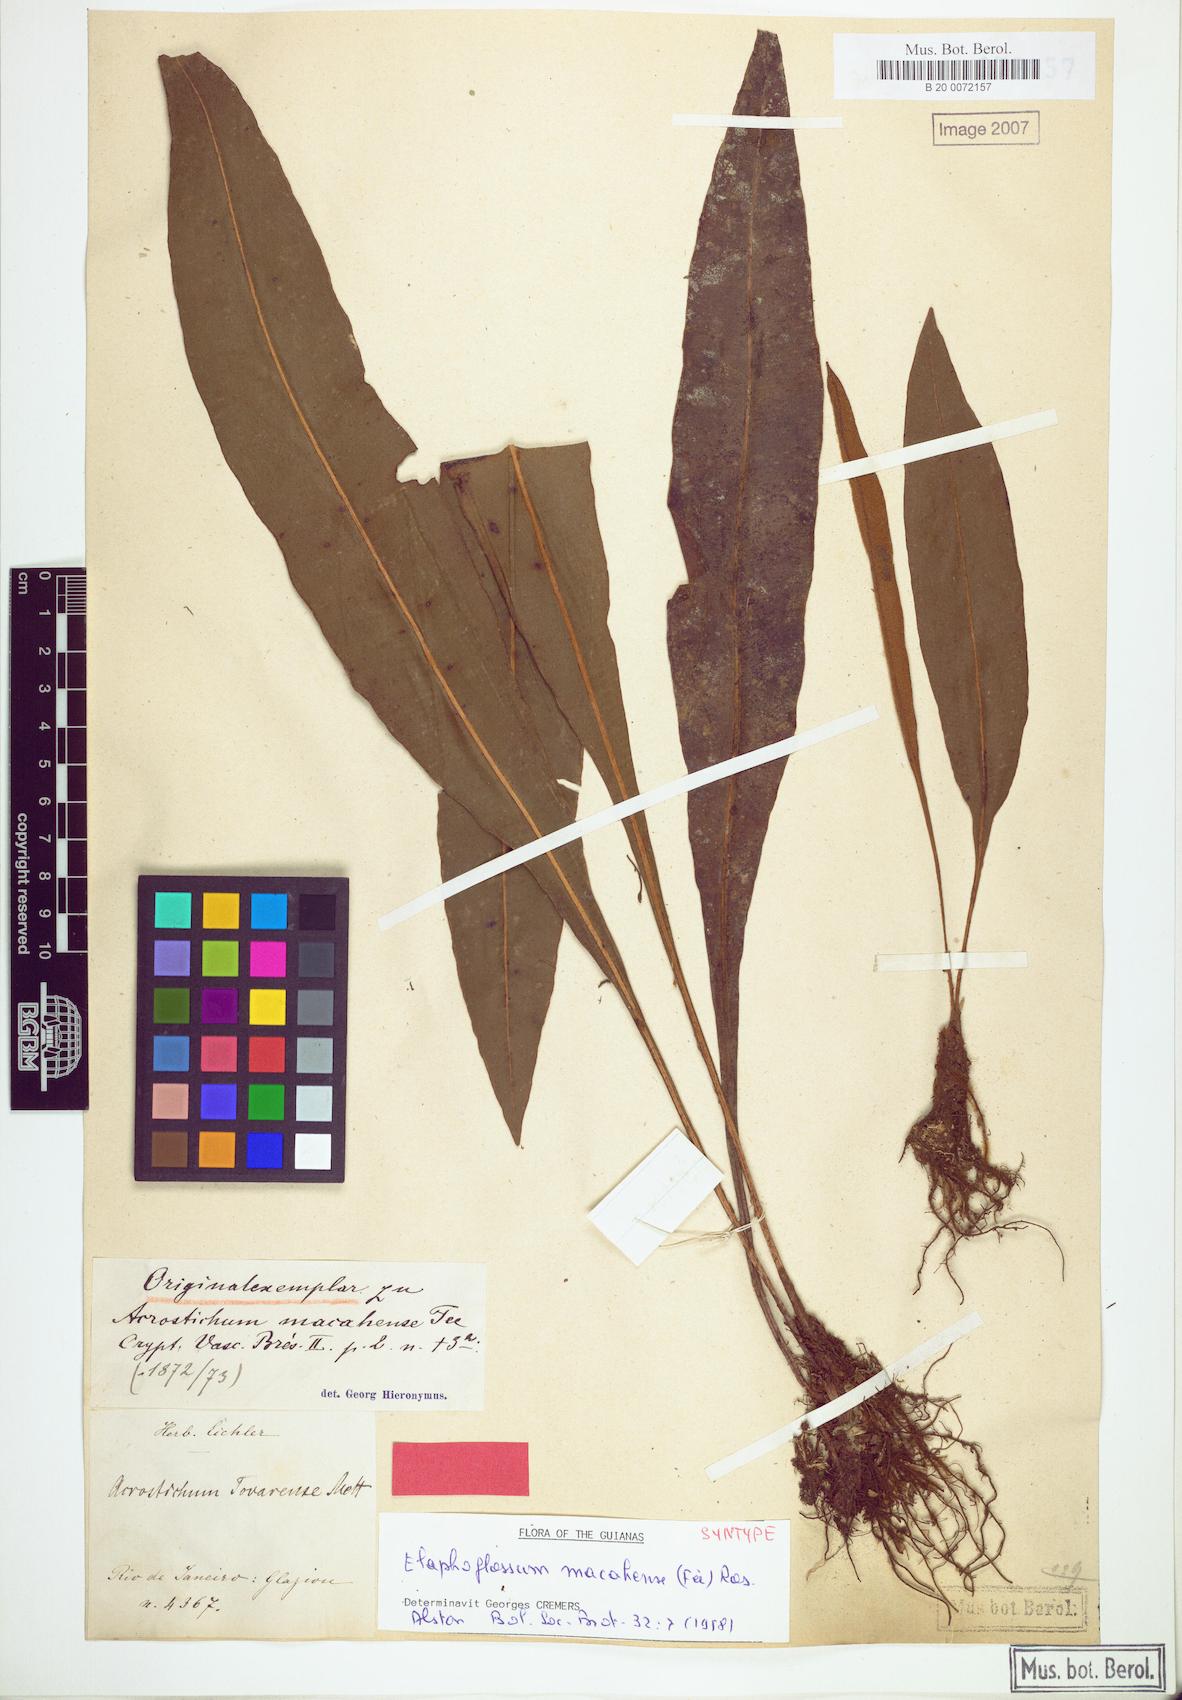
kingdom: Plantae
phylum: Tracheophyta
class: Polypodiopsida
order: Polypodiales
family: Dryopteridaceae
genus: Elaphoglossum
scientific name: Elaphoglossum macahense
